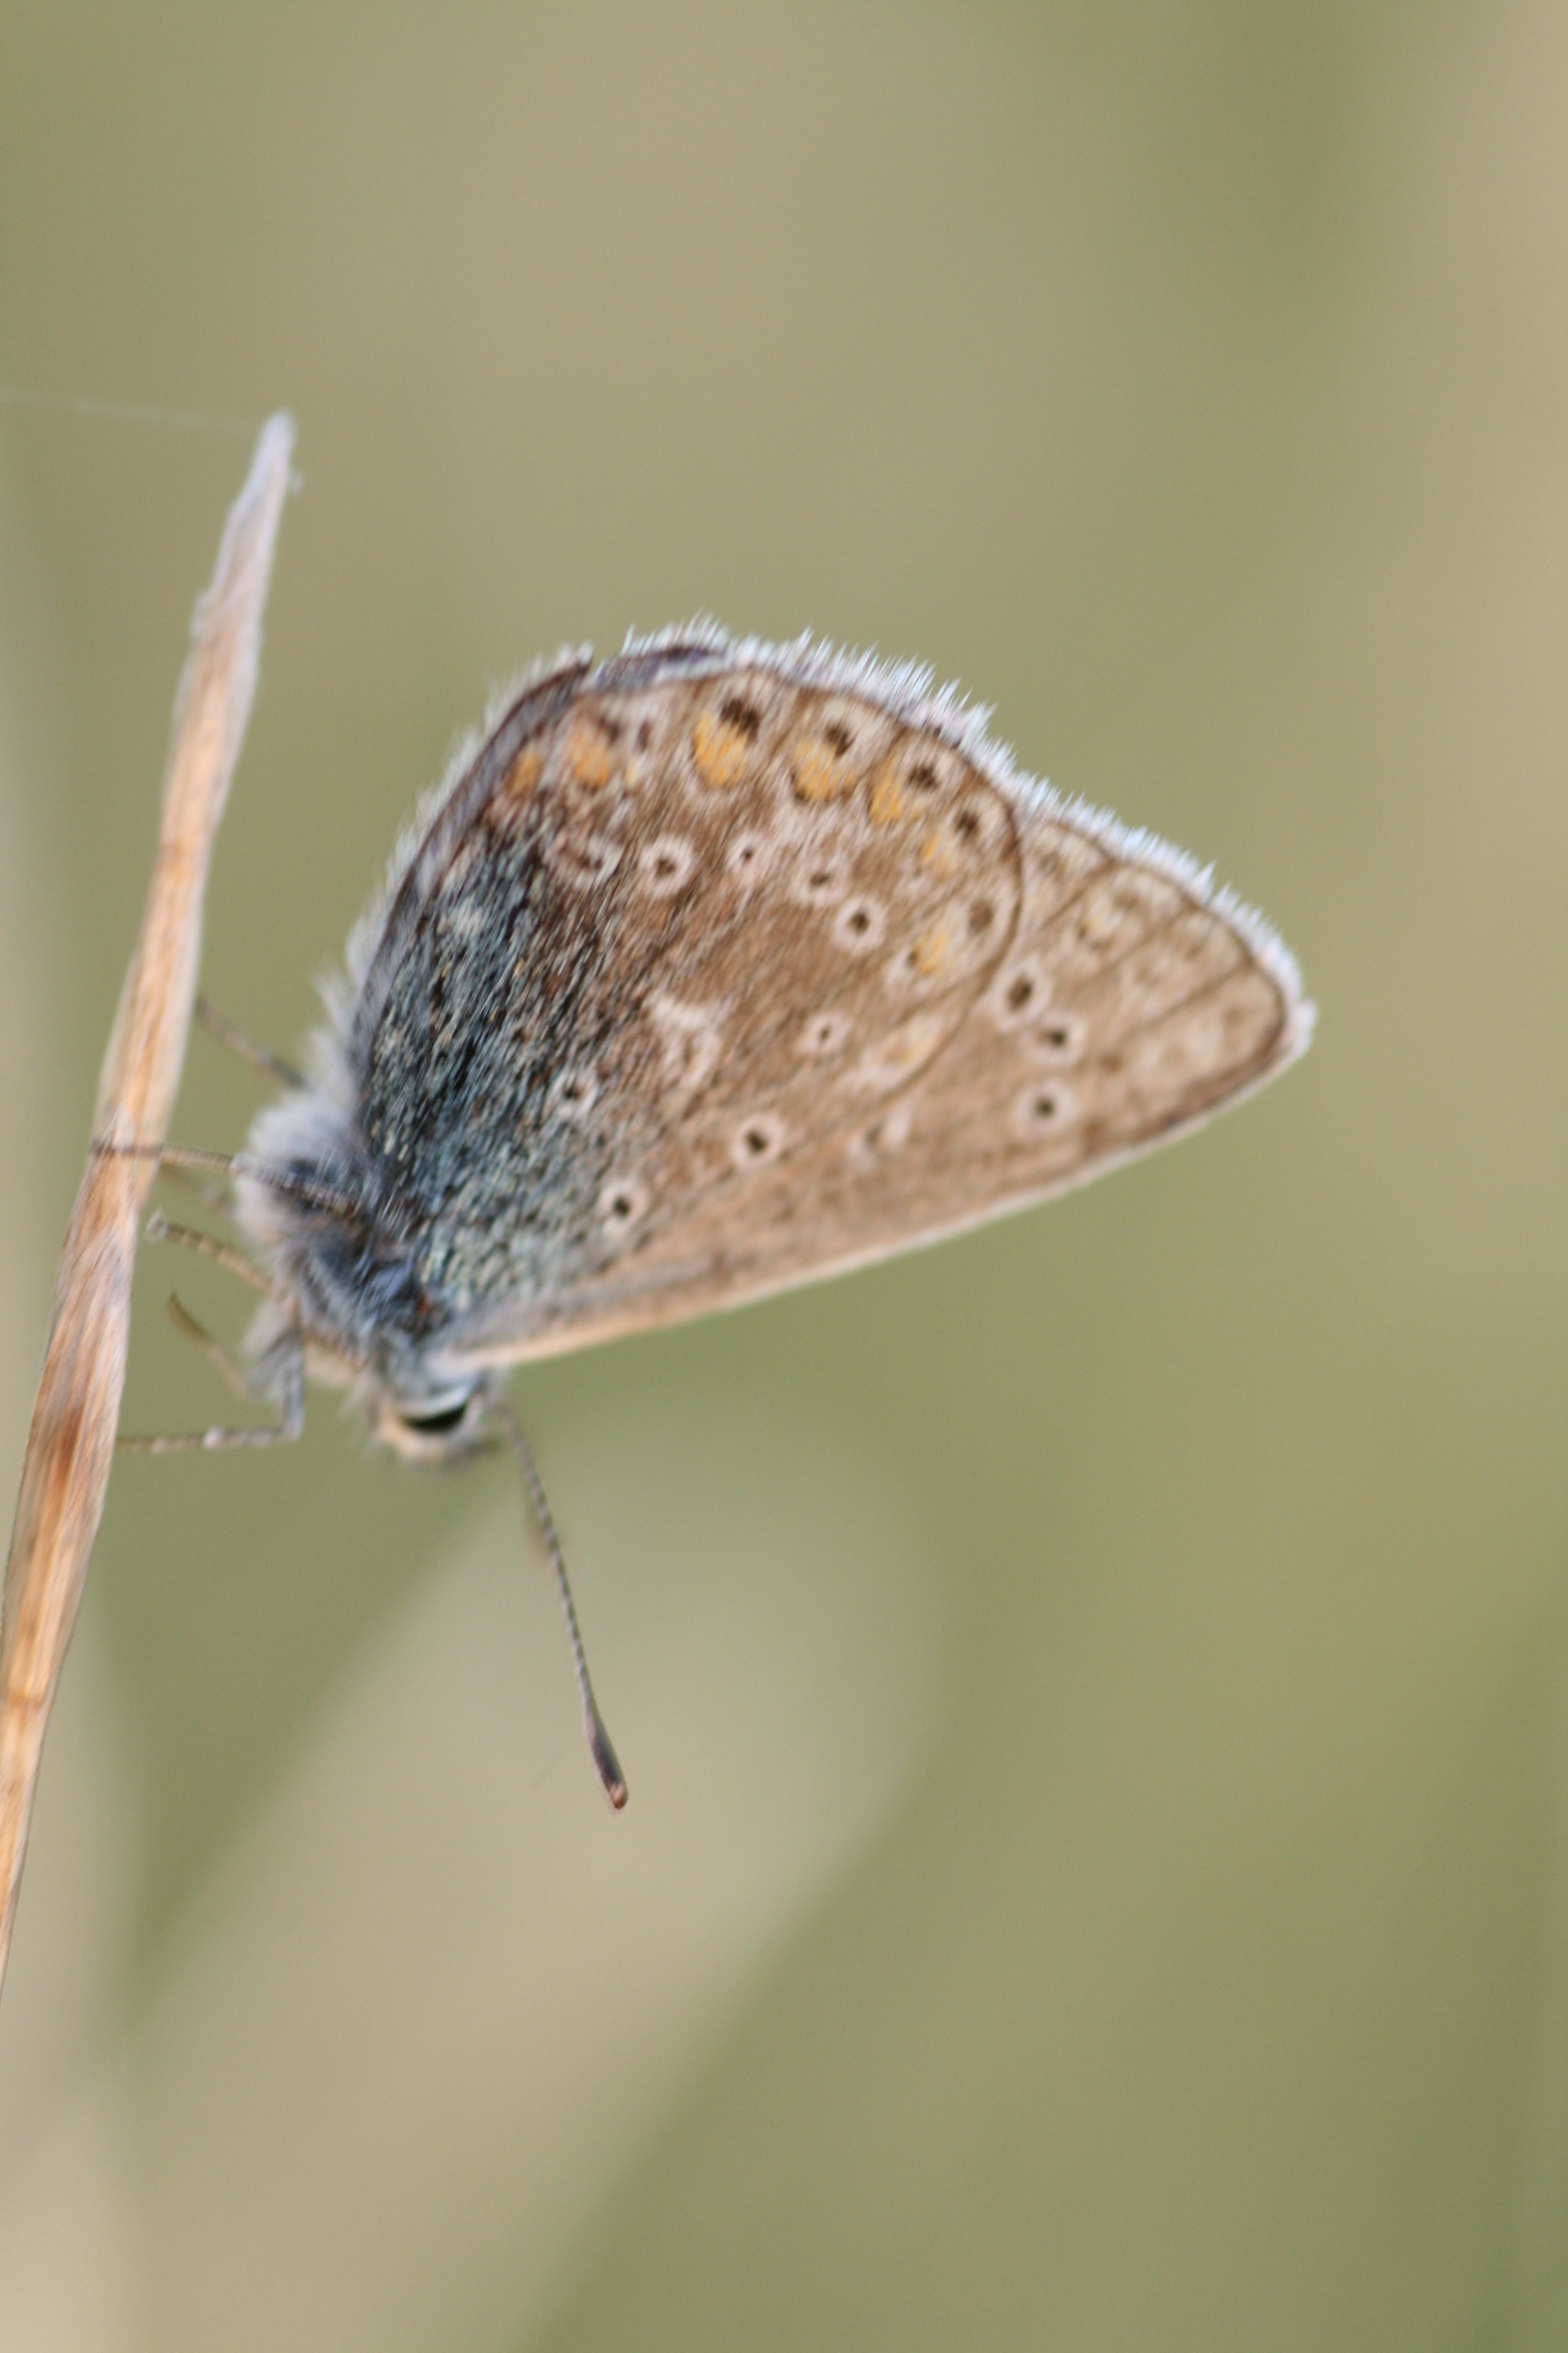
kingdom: Animalia
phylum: Arthropoda
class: Insecta
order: Lepidoptera
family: Lycaenidae
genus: Polyommatus
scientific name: Polyommatus icarus
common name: Almindelig blåfugl
